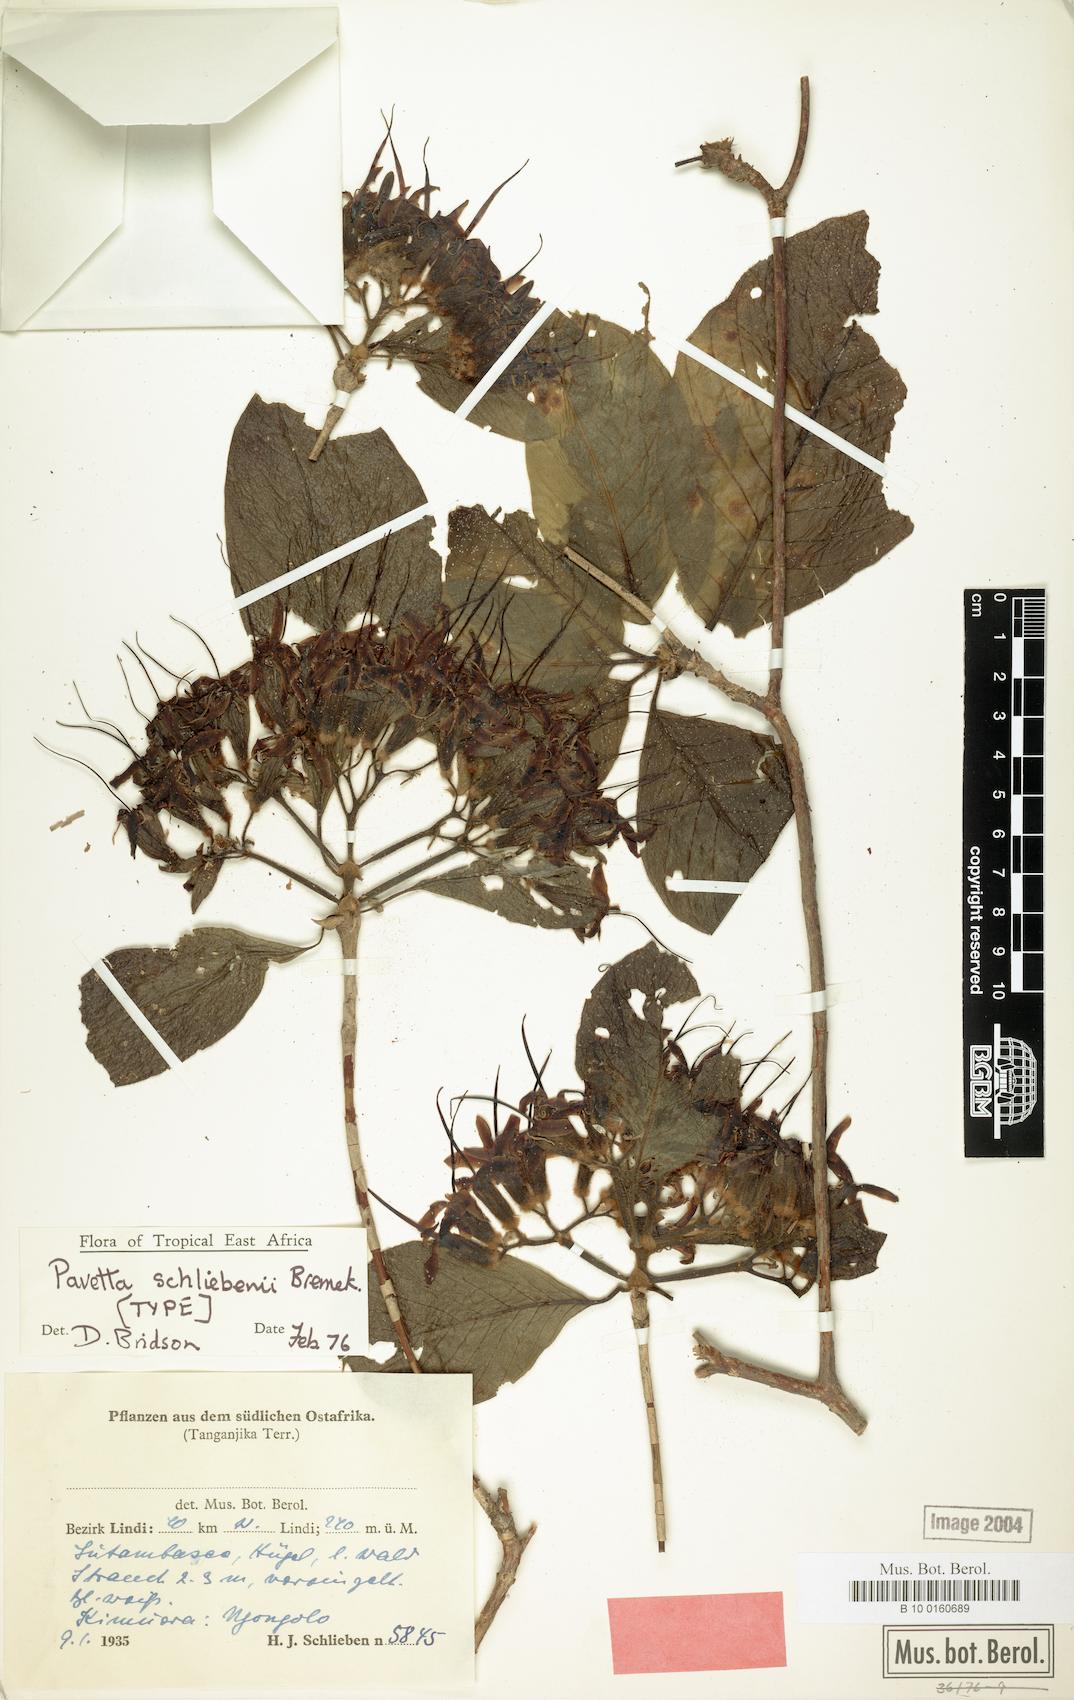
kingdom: Plantae
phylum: Tracheophyta
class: Magnoliopsida
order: Gentianales
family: Rubiaceae
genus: Pavetta
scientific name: Pavetta schliebenii
